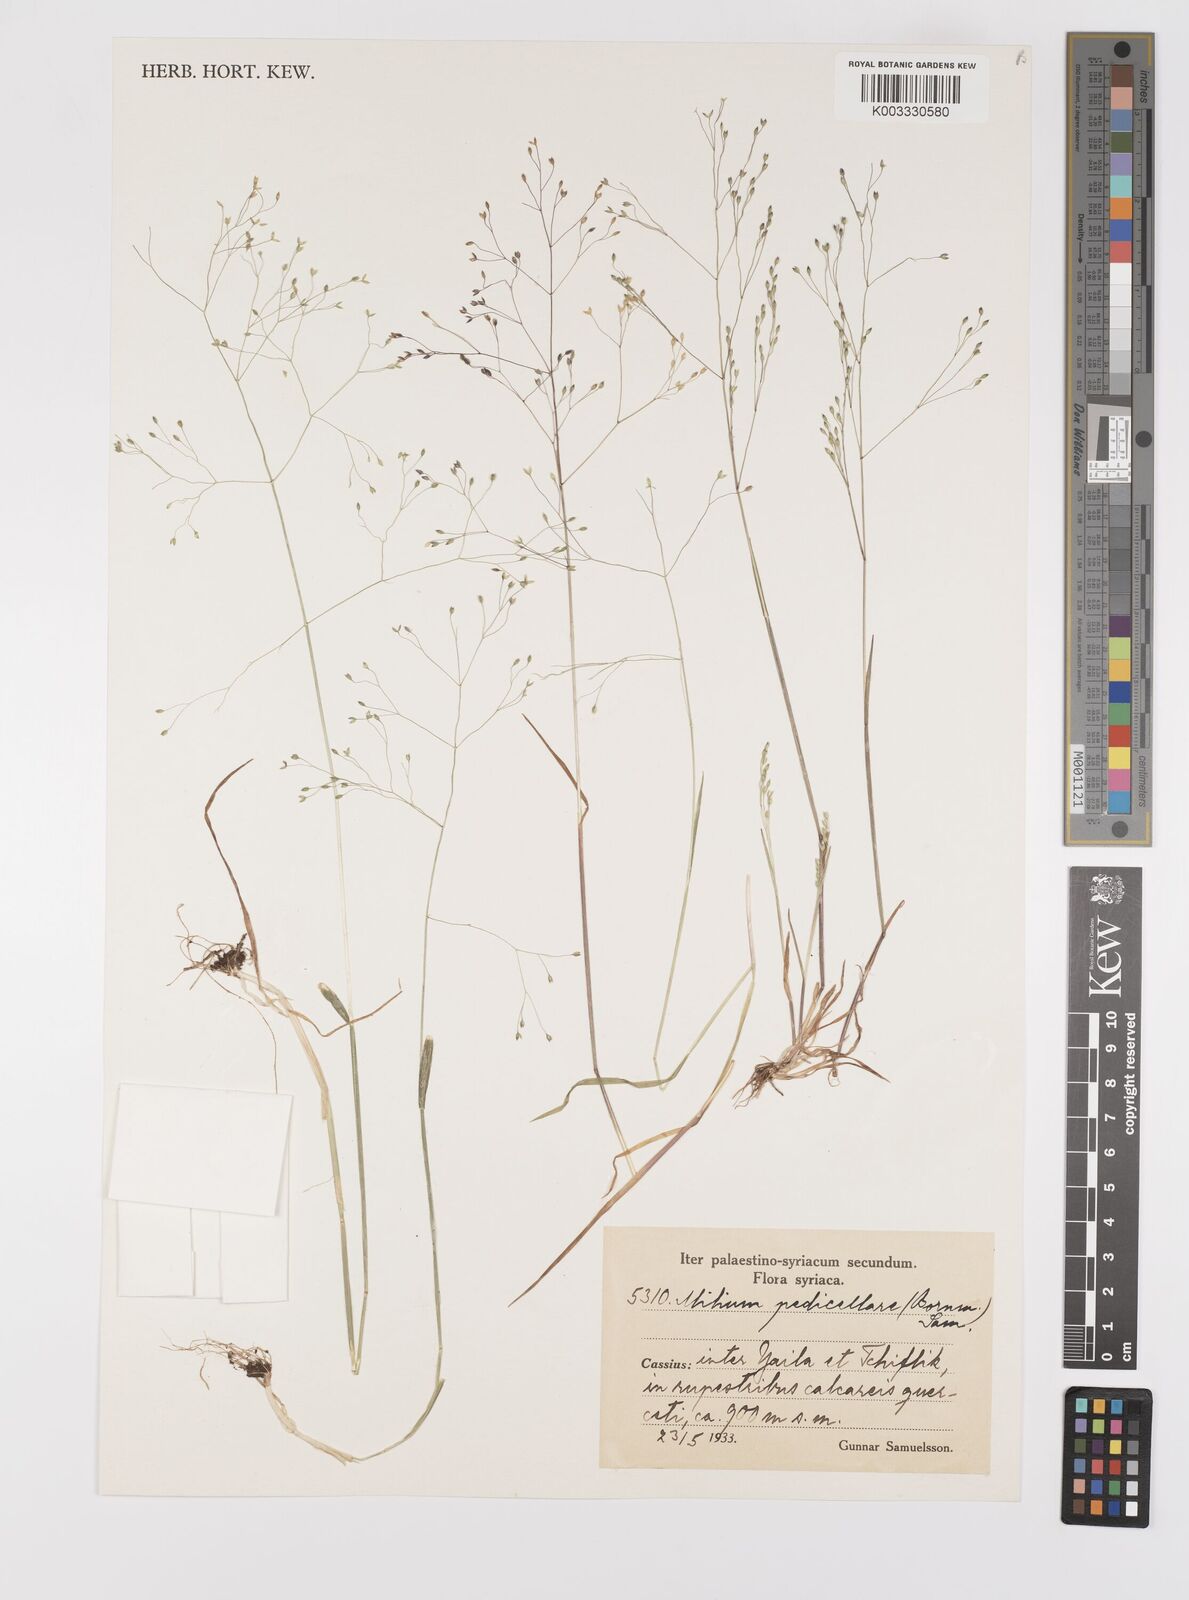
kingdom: Plantae
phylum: Tracheophyta
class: Liliopsida
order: Poales
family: Poaceae
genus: Milium
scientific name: Milium pedicellare
